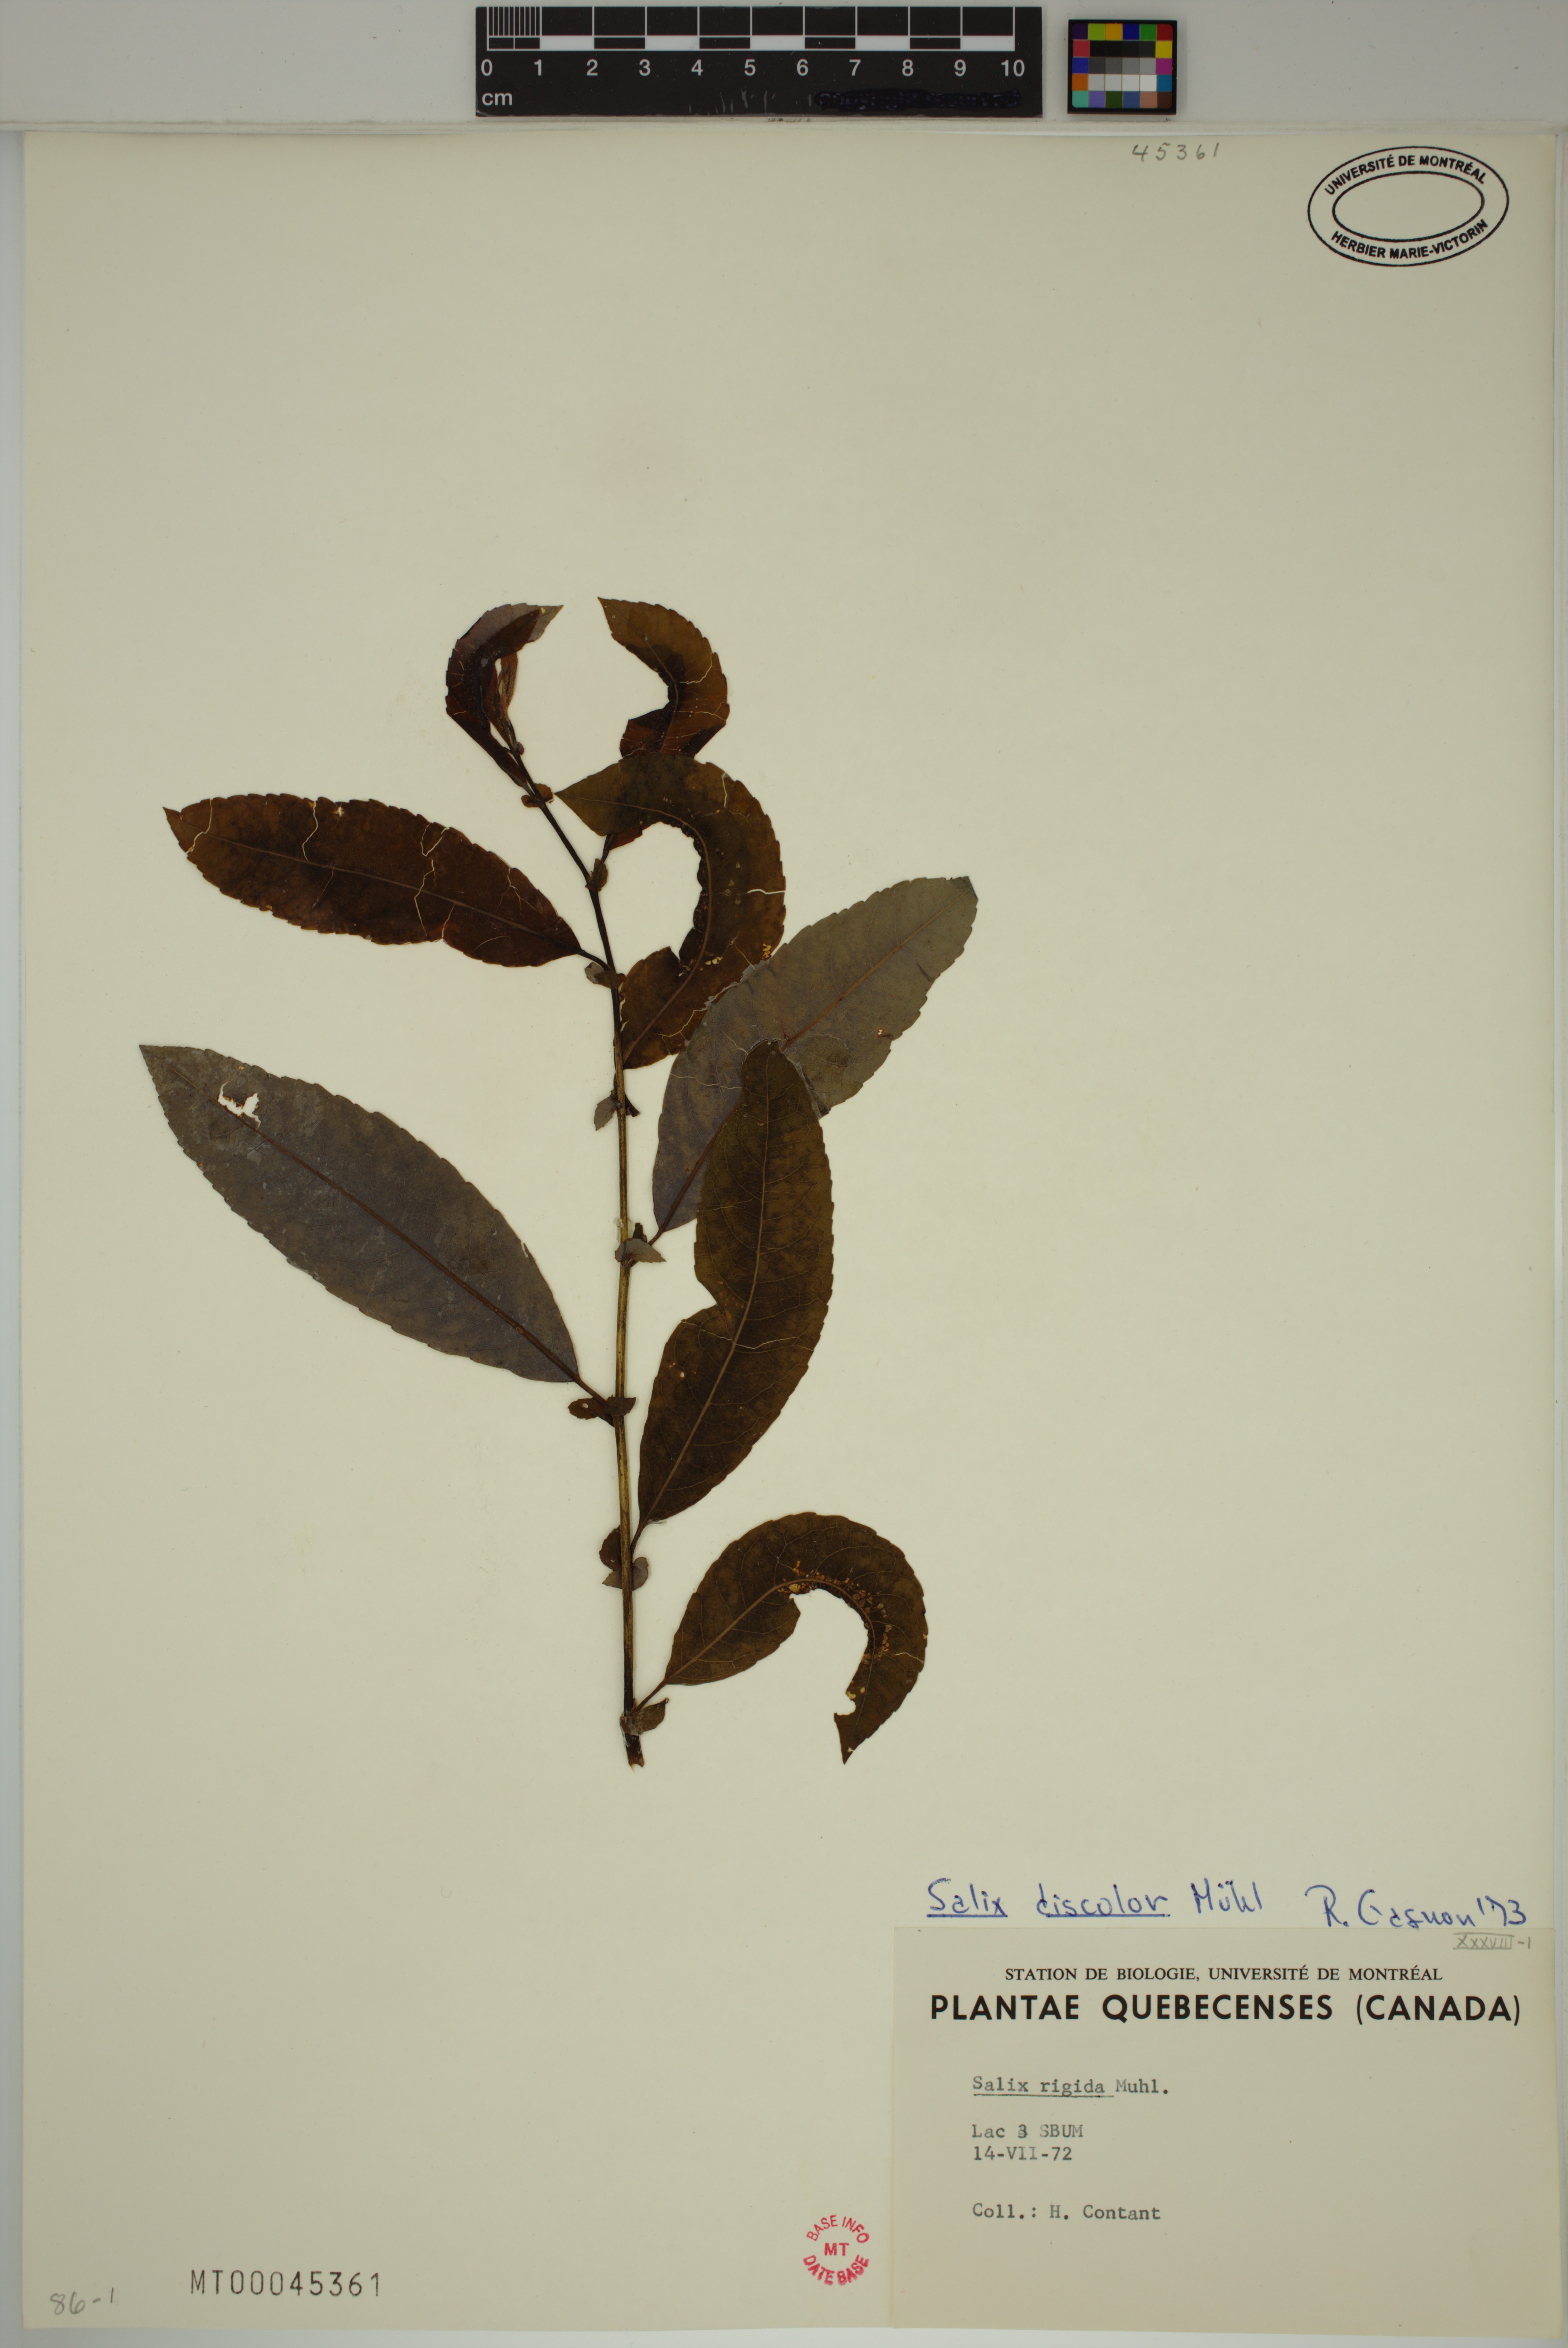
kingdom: Plantae
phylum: Tracheophyta
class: Magnoliopsida
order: Malpighiales
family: Salicaceae
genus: Salix
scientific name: Salix discolor
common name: Glaucous willow
